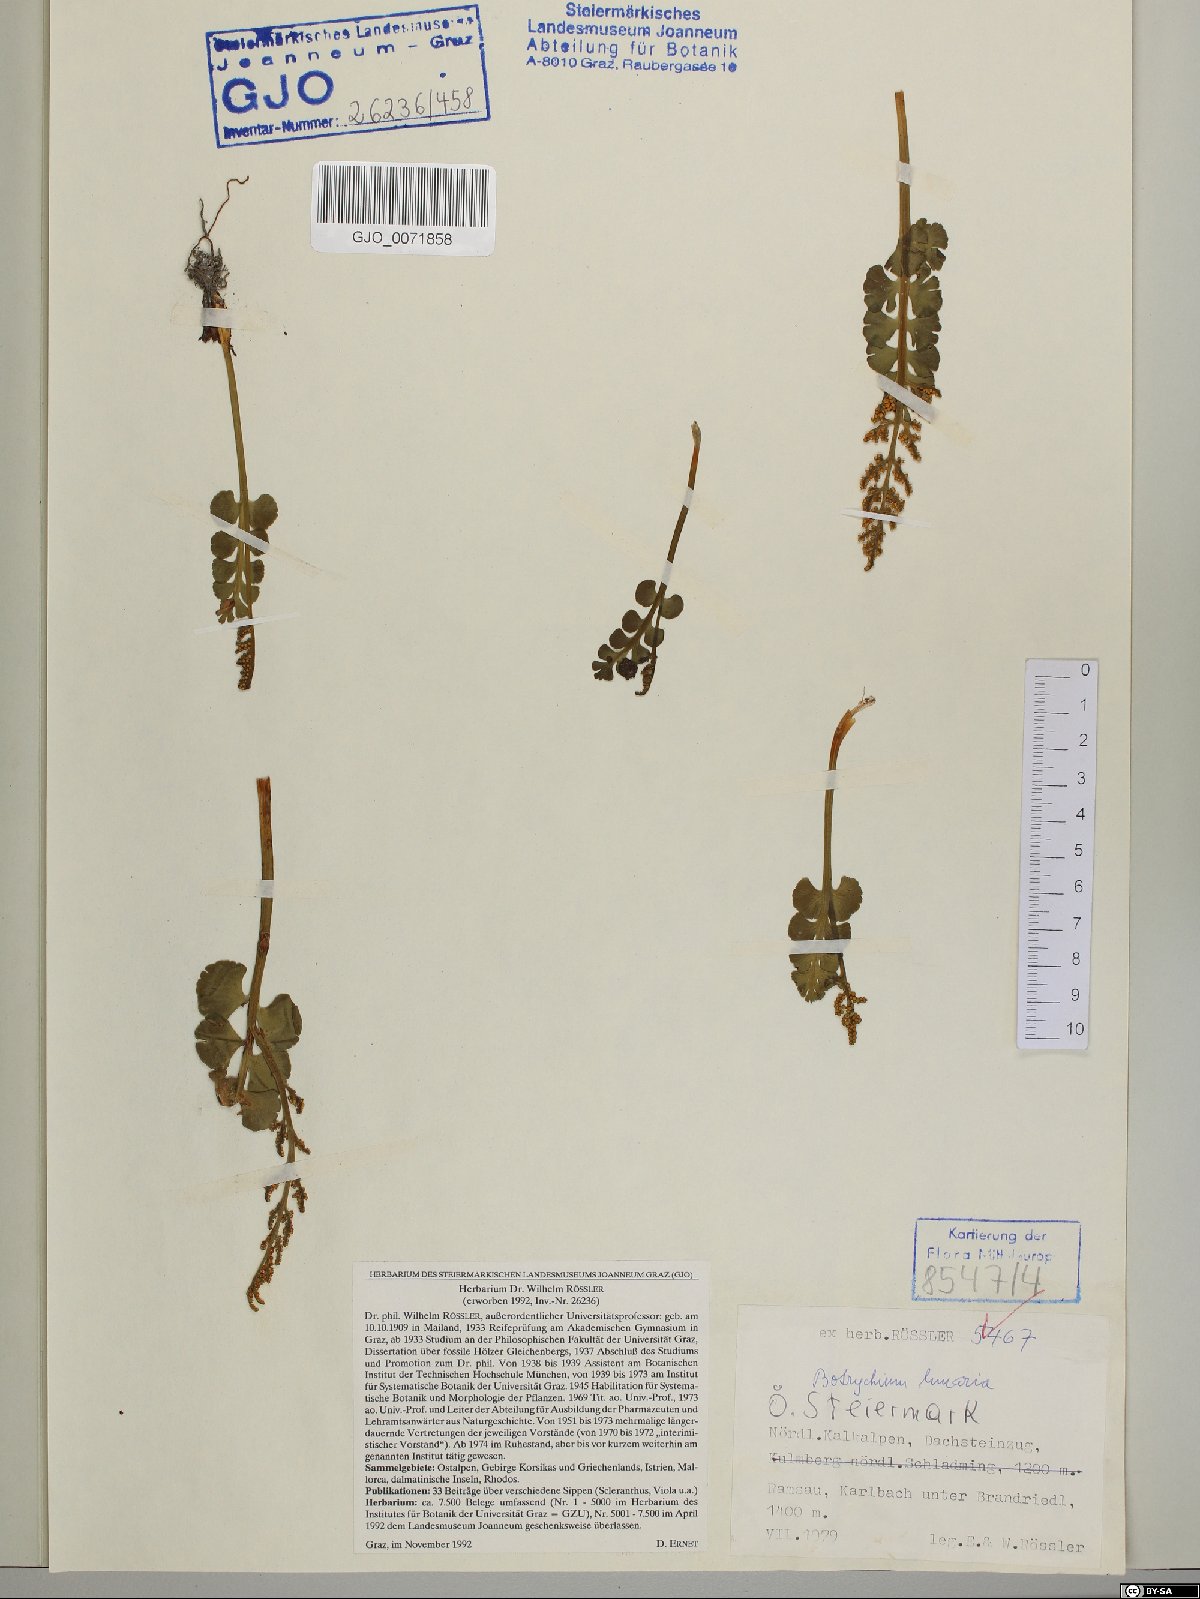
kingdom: Plantae
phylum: Tracheophyta
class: Polypodiopsida
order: Ophioglossales
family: Ophioglossaceae
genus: Botrychium
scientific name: Botrychium lunaria
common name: Moonwort
